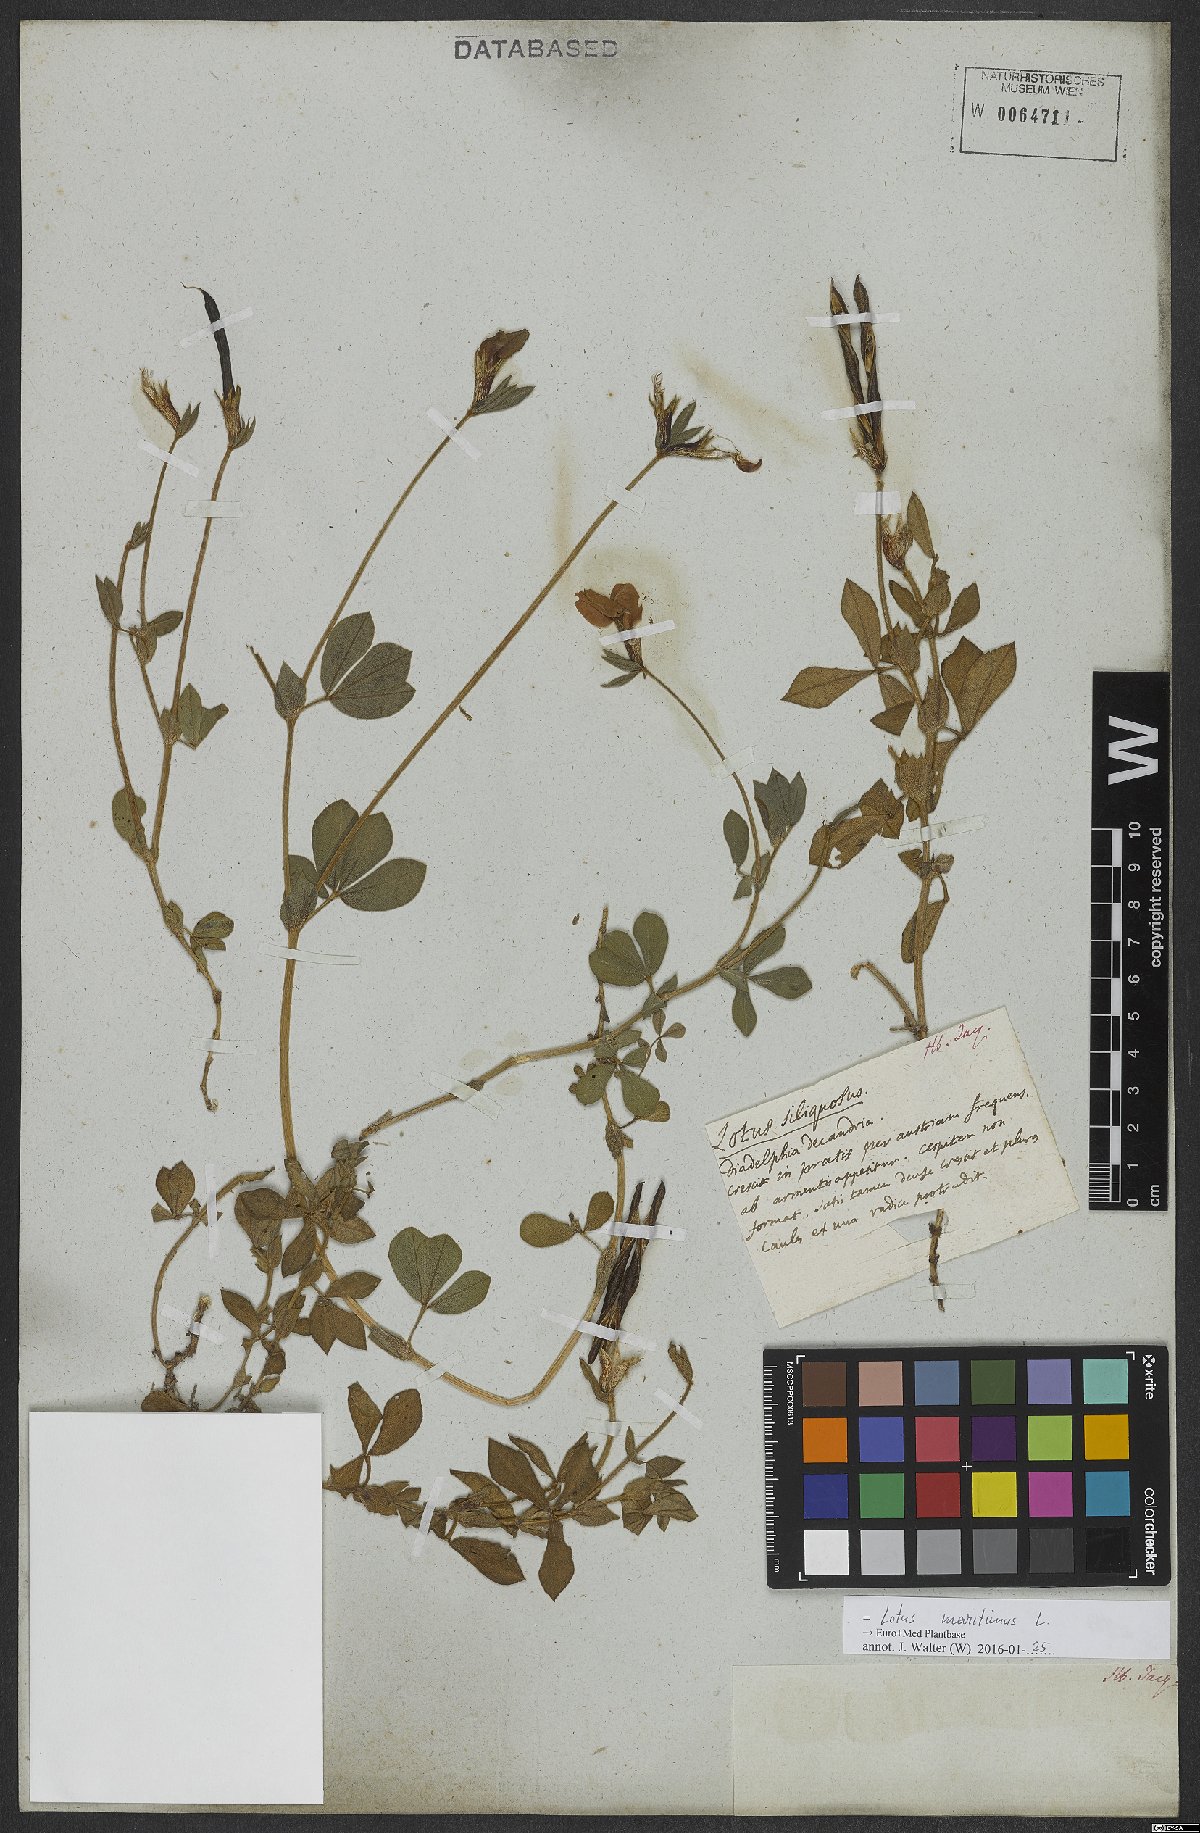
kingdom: Plantae
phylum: Tracheophyta
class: Magnoliopsida
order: Fabales
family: Fabaceae
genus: Lotus
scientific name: Lotus maritimus
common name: Dragon's-teeth
